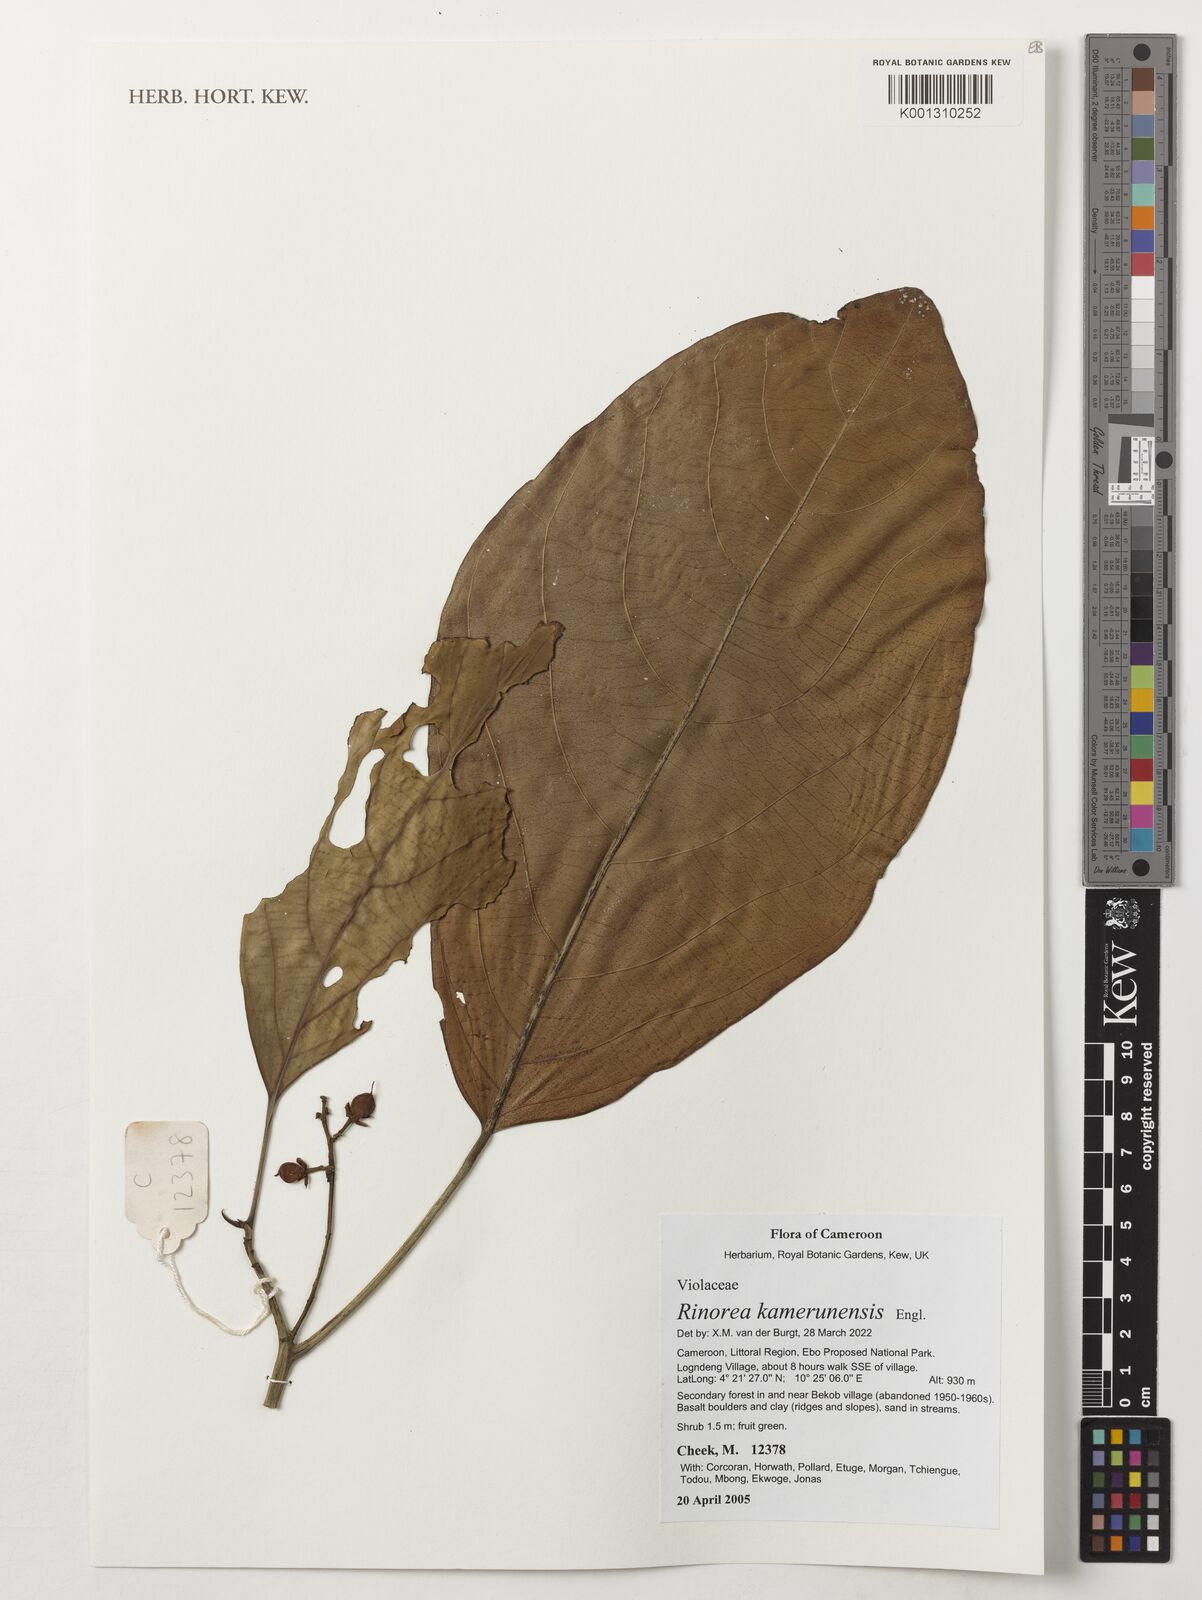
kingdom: Plantae
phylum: Tracheophyta
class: Magnoliopsida
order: Malpighiales
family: Violaceae
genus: Rinorea
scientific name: Rinorea kamerunensis
